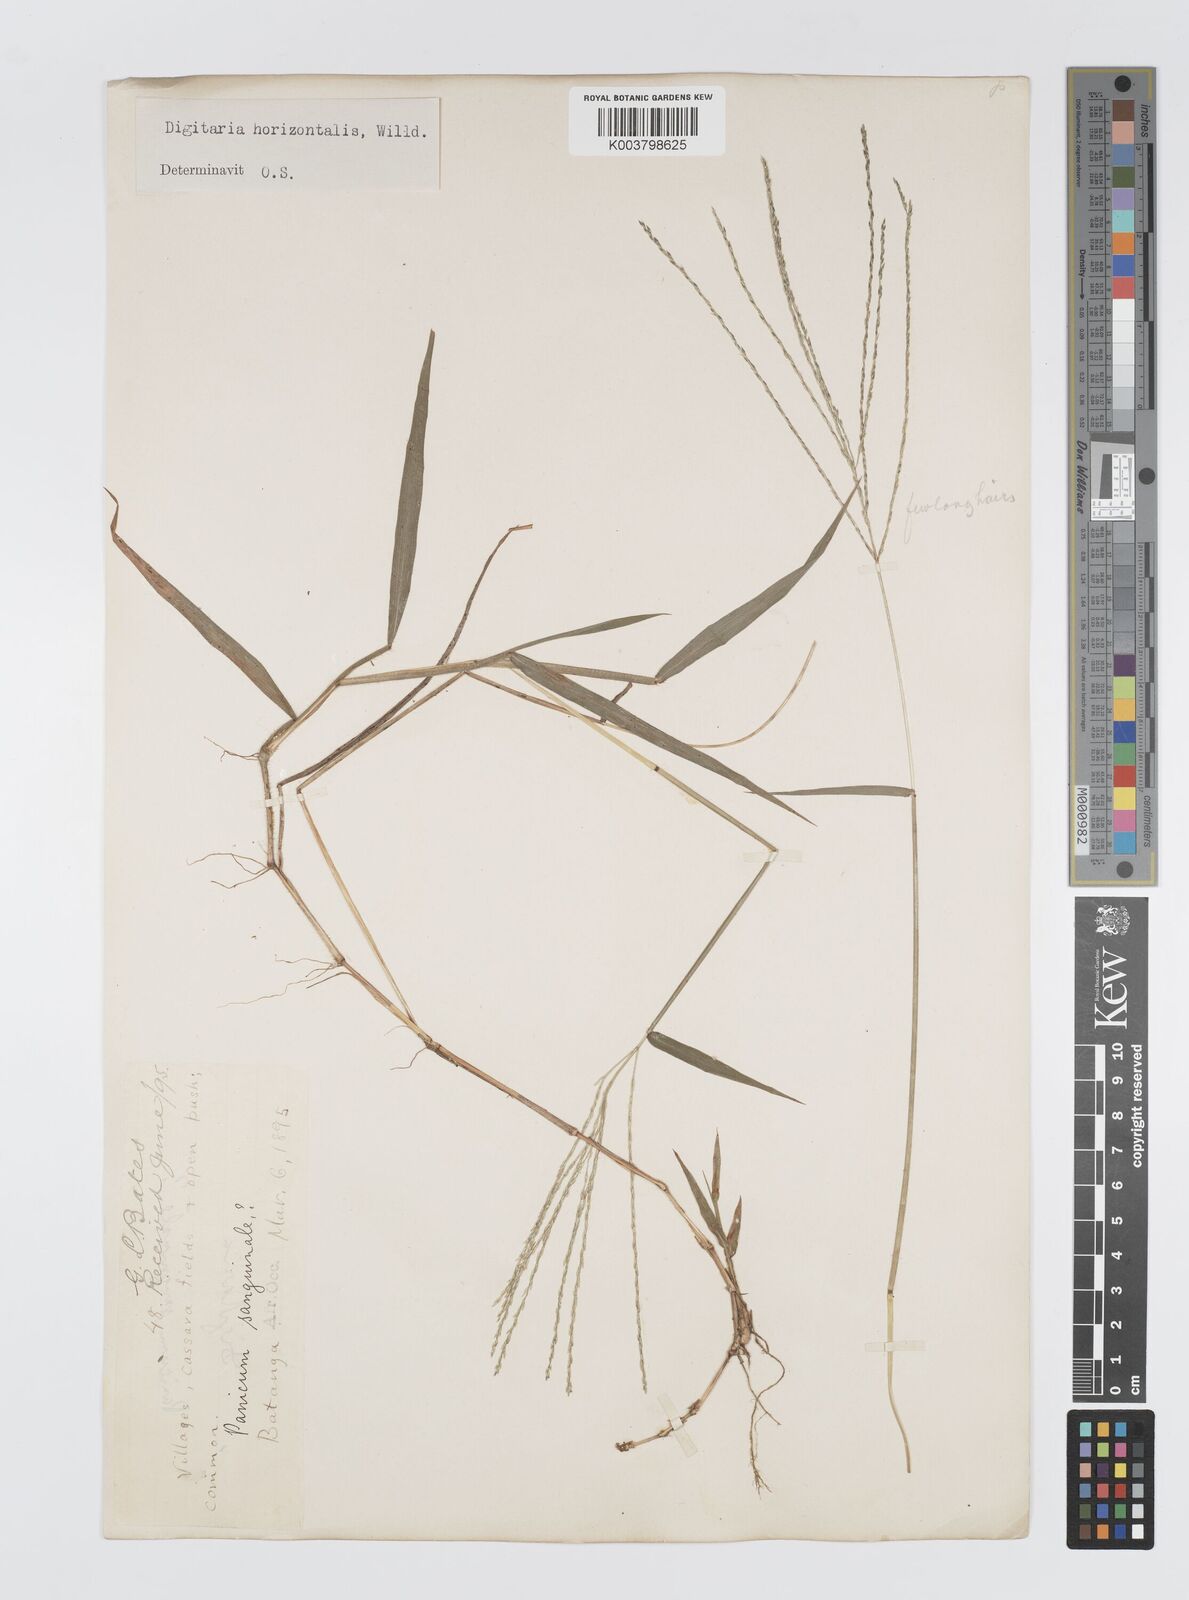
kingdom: Plantae
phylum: Tracheophyta
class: Liliopsida
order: Poales
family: Poaceae
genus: Digitaria
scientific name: Digitaria horizontalis
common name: Jamaican crabgrass
